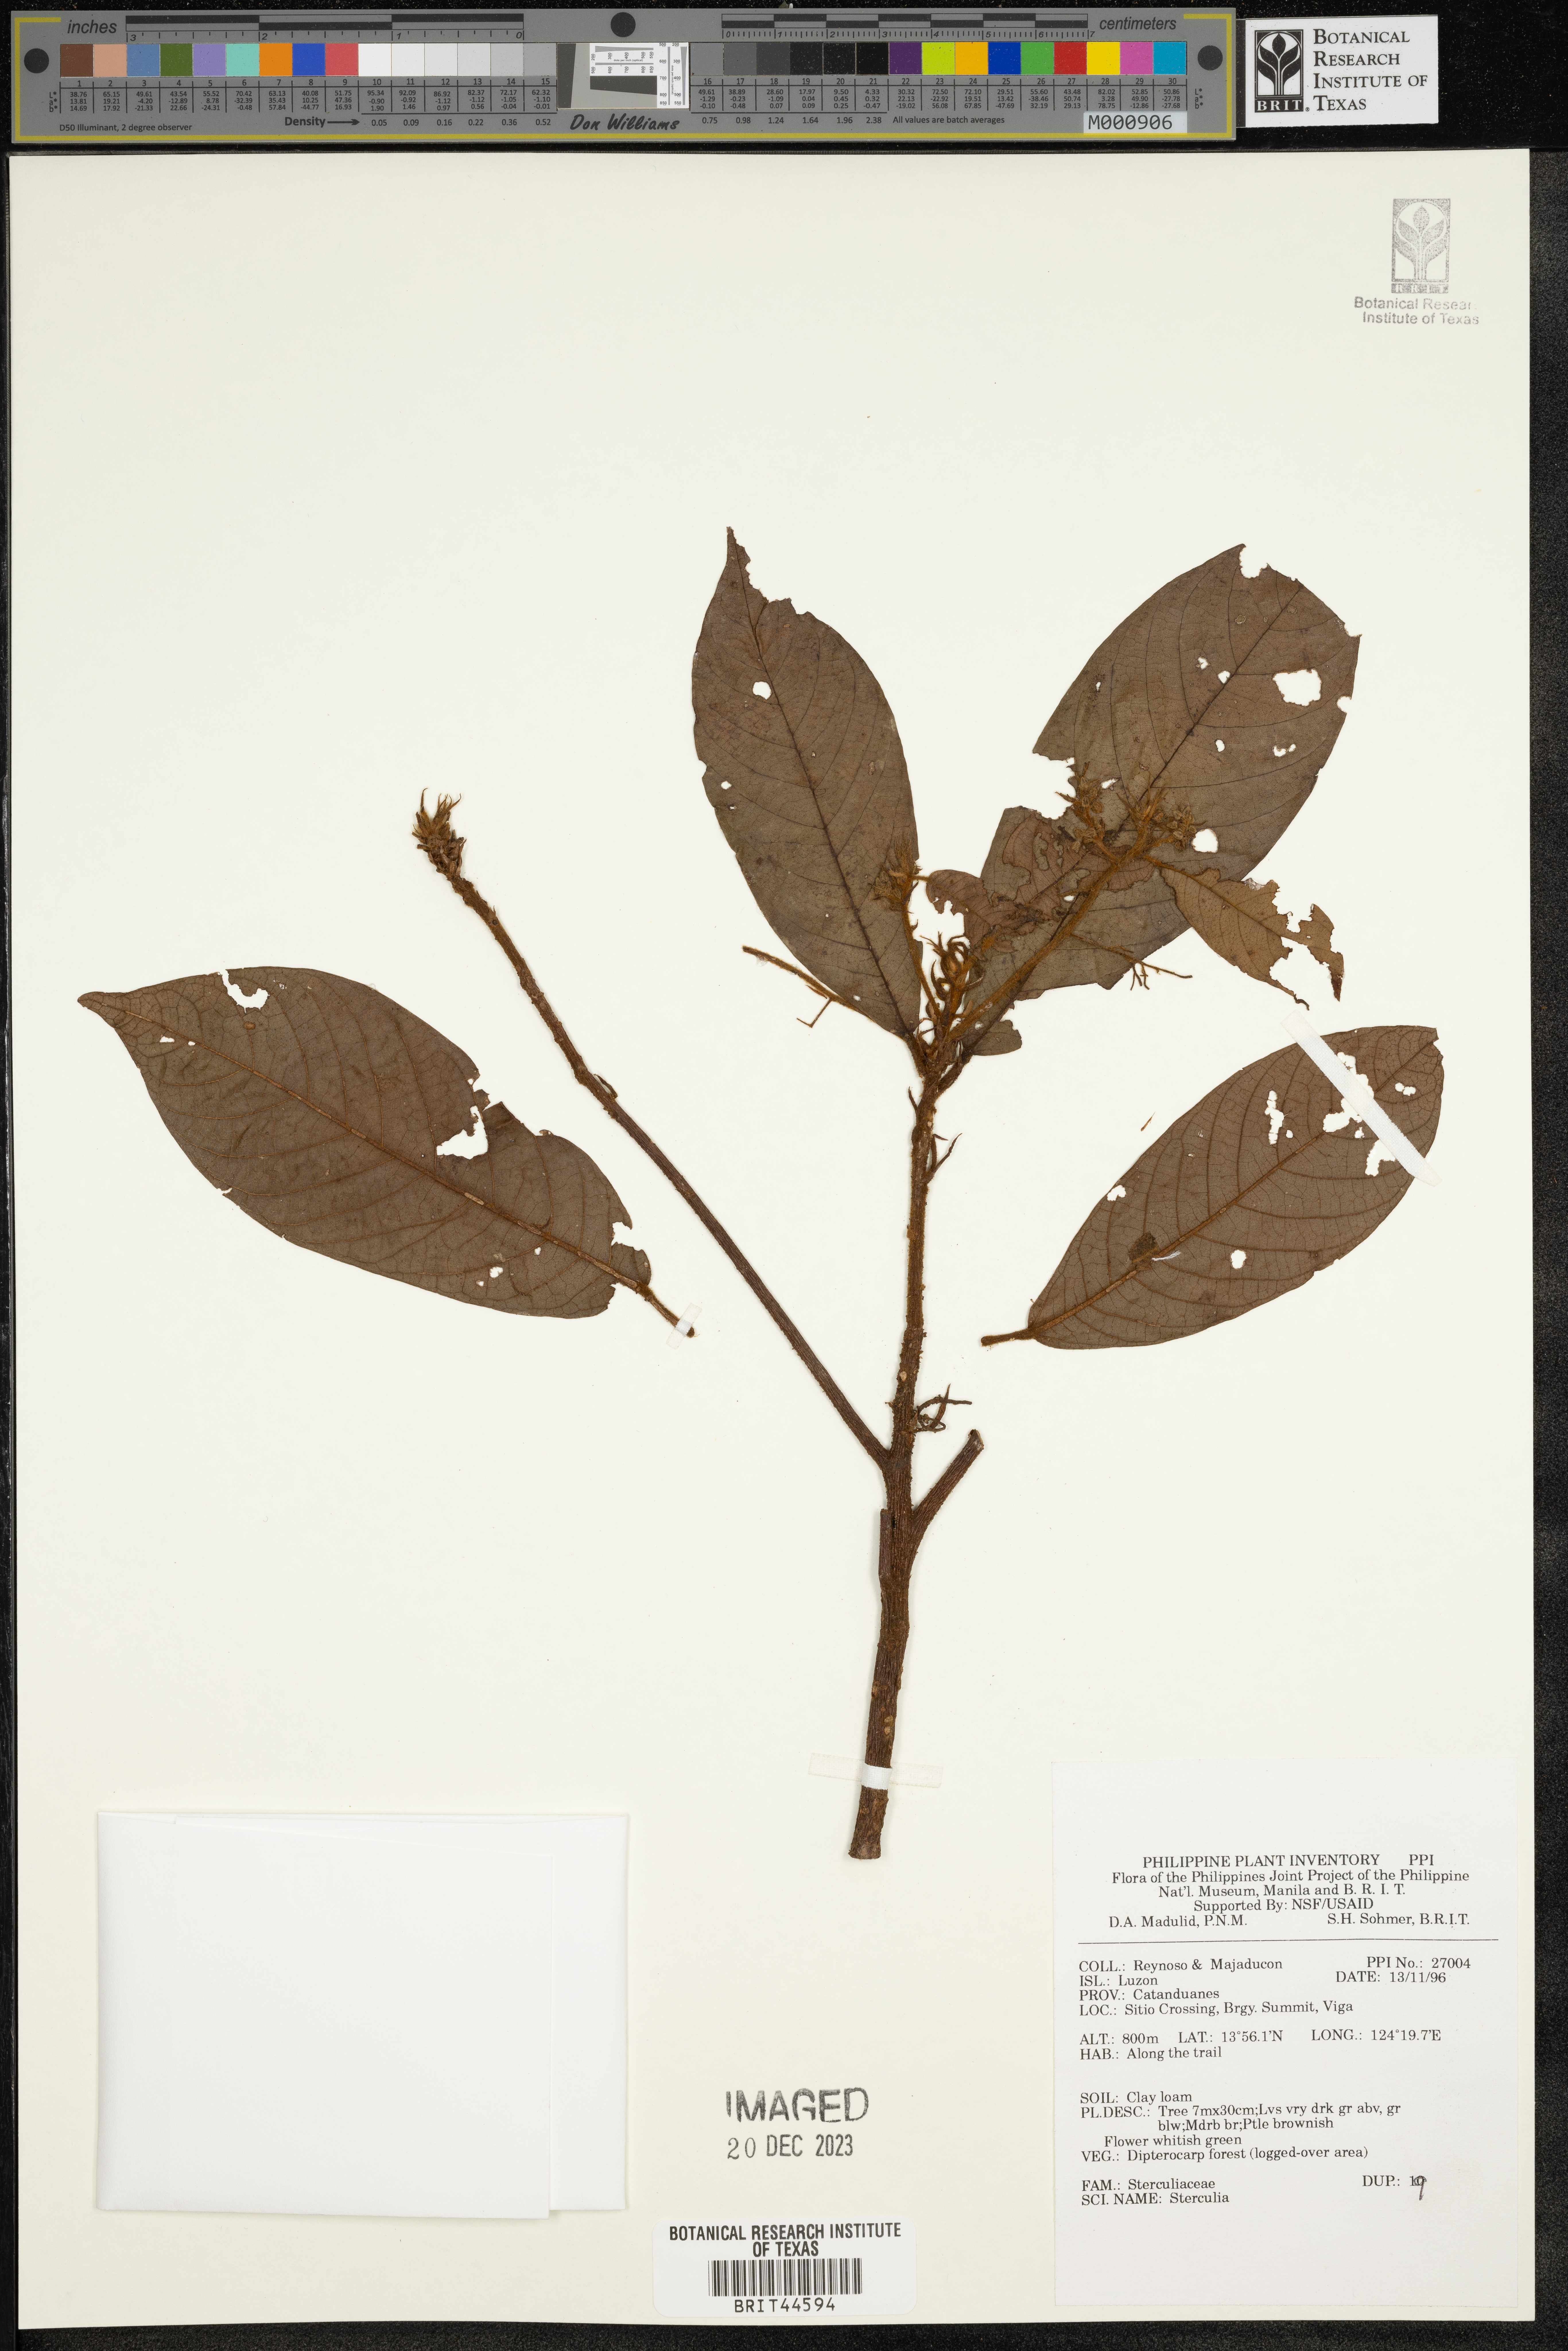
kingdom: Plantae
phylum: Tracheophyta
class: Magnoliopsida
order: Malvales
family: Malvaceae
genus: Sterculia
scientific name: Sterculia
